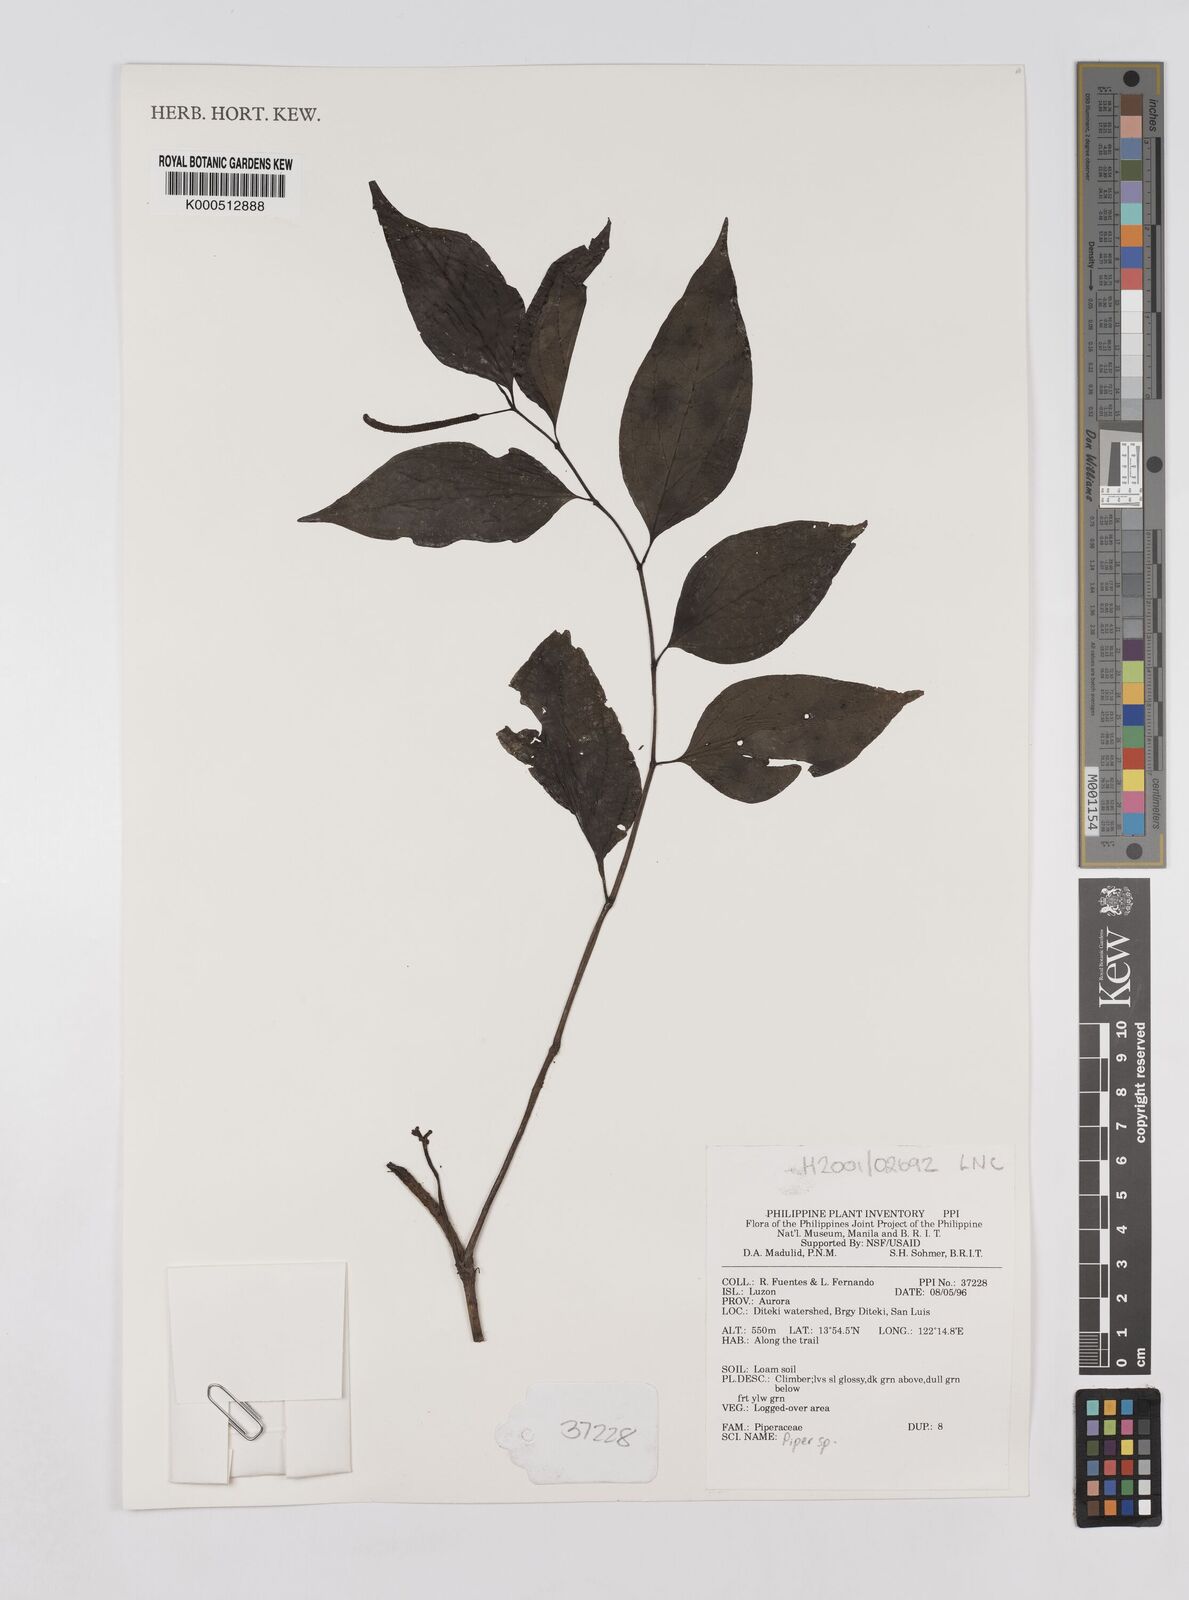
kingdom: Plantae
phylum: Tracheophyta
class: Magnoliopsida
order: Piperales
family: Piperaceae
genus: Piper
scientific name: Piper
